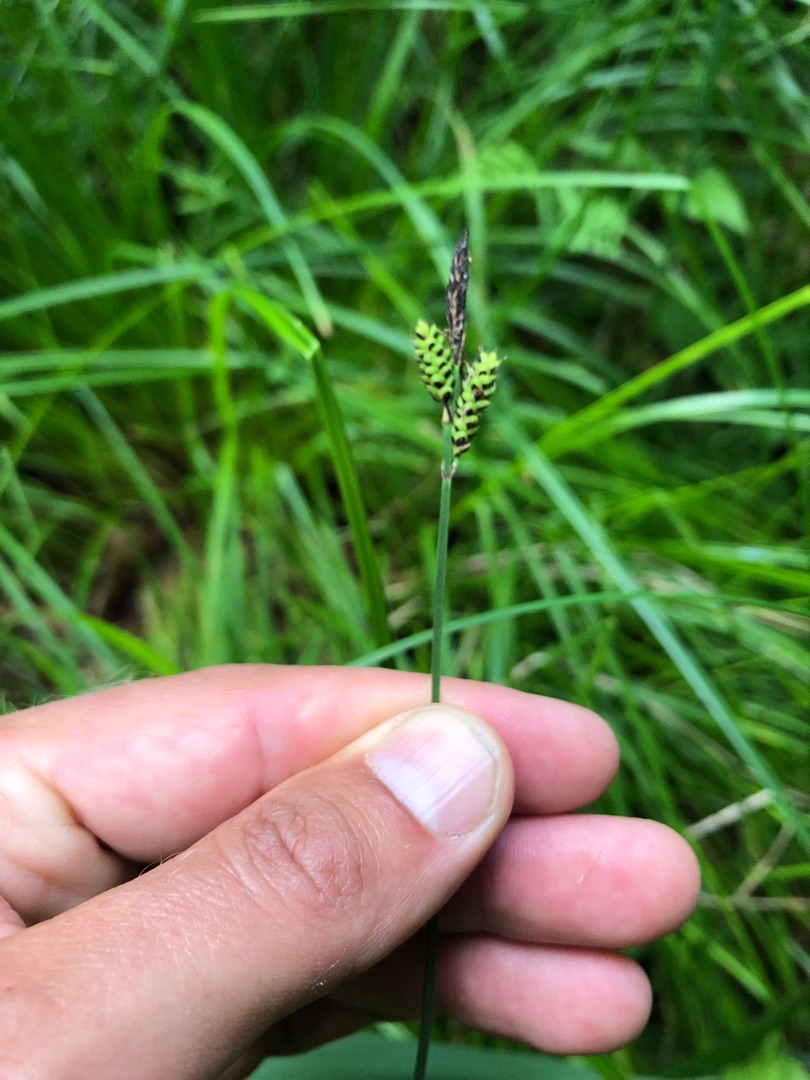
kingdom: Plantae
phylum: Tracheophyta
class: Liliopsida
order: Poales
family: Cyperaceae
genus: Carex
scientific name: Carex cespitosa
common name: Tue-star
